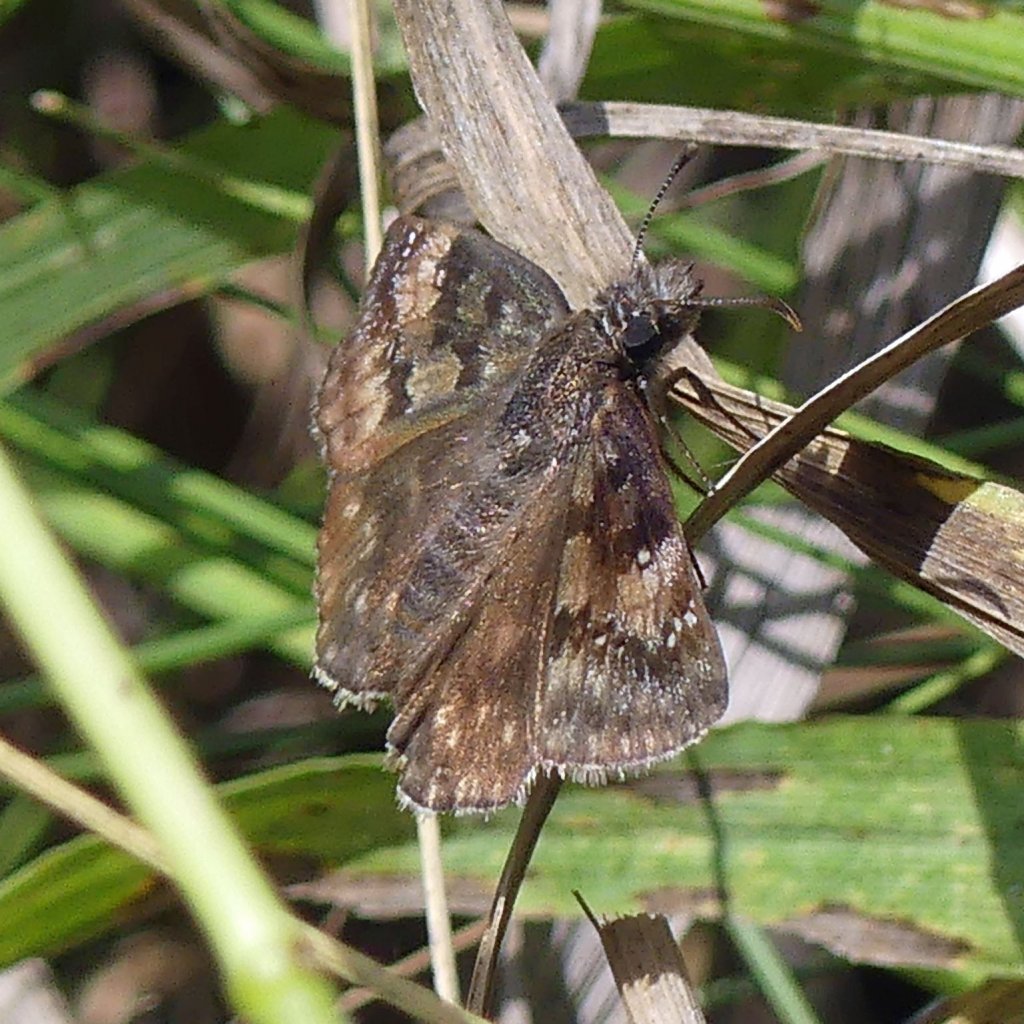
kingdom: Animalia
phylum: Arthropoda
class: Insecta
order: Lepidoptera
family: Hesperiidae
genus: Gesta
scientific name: Gesta
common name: Wild Indigo Duskywing
